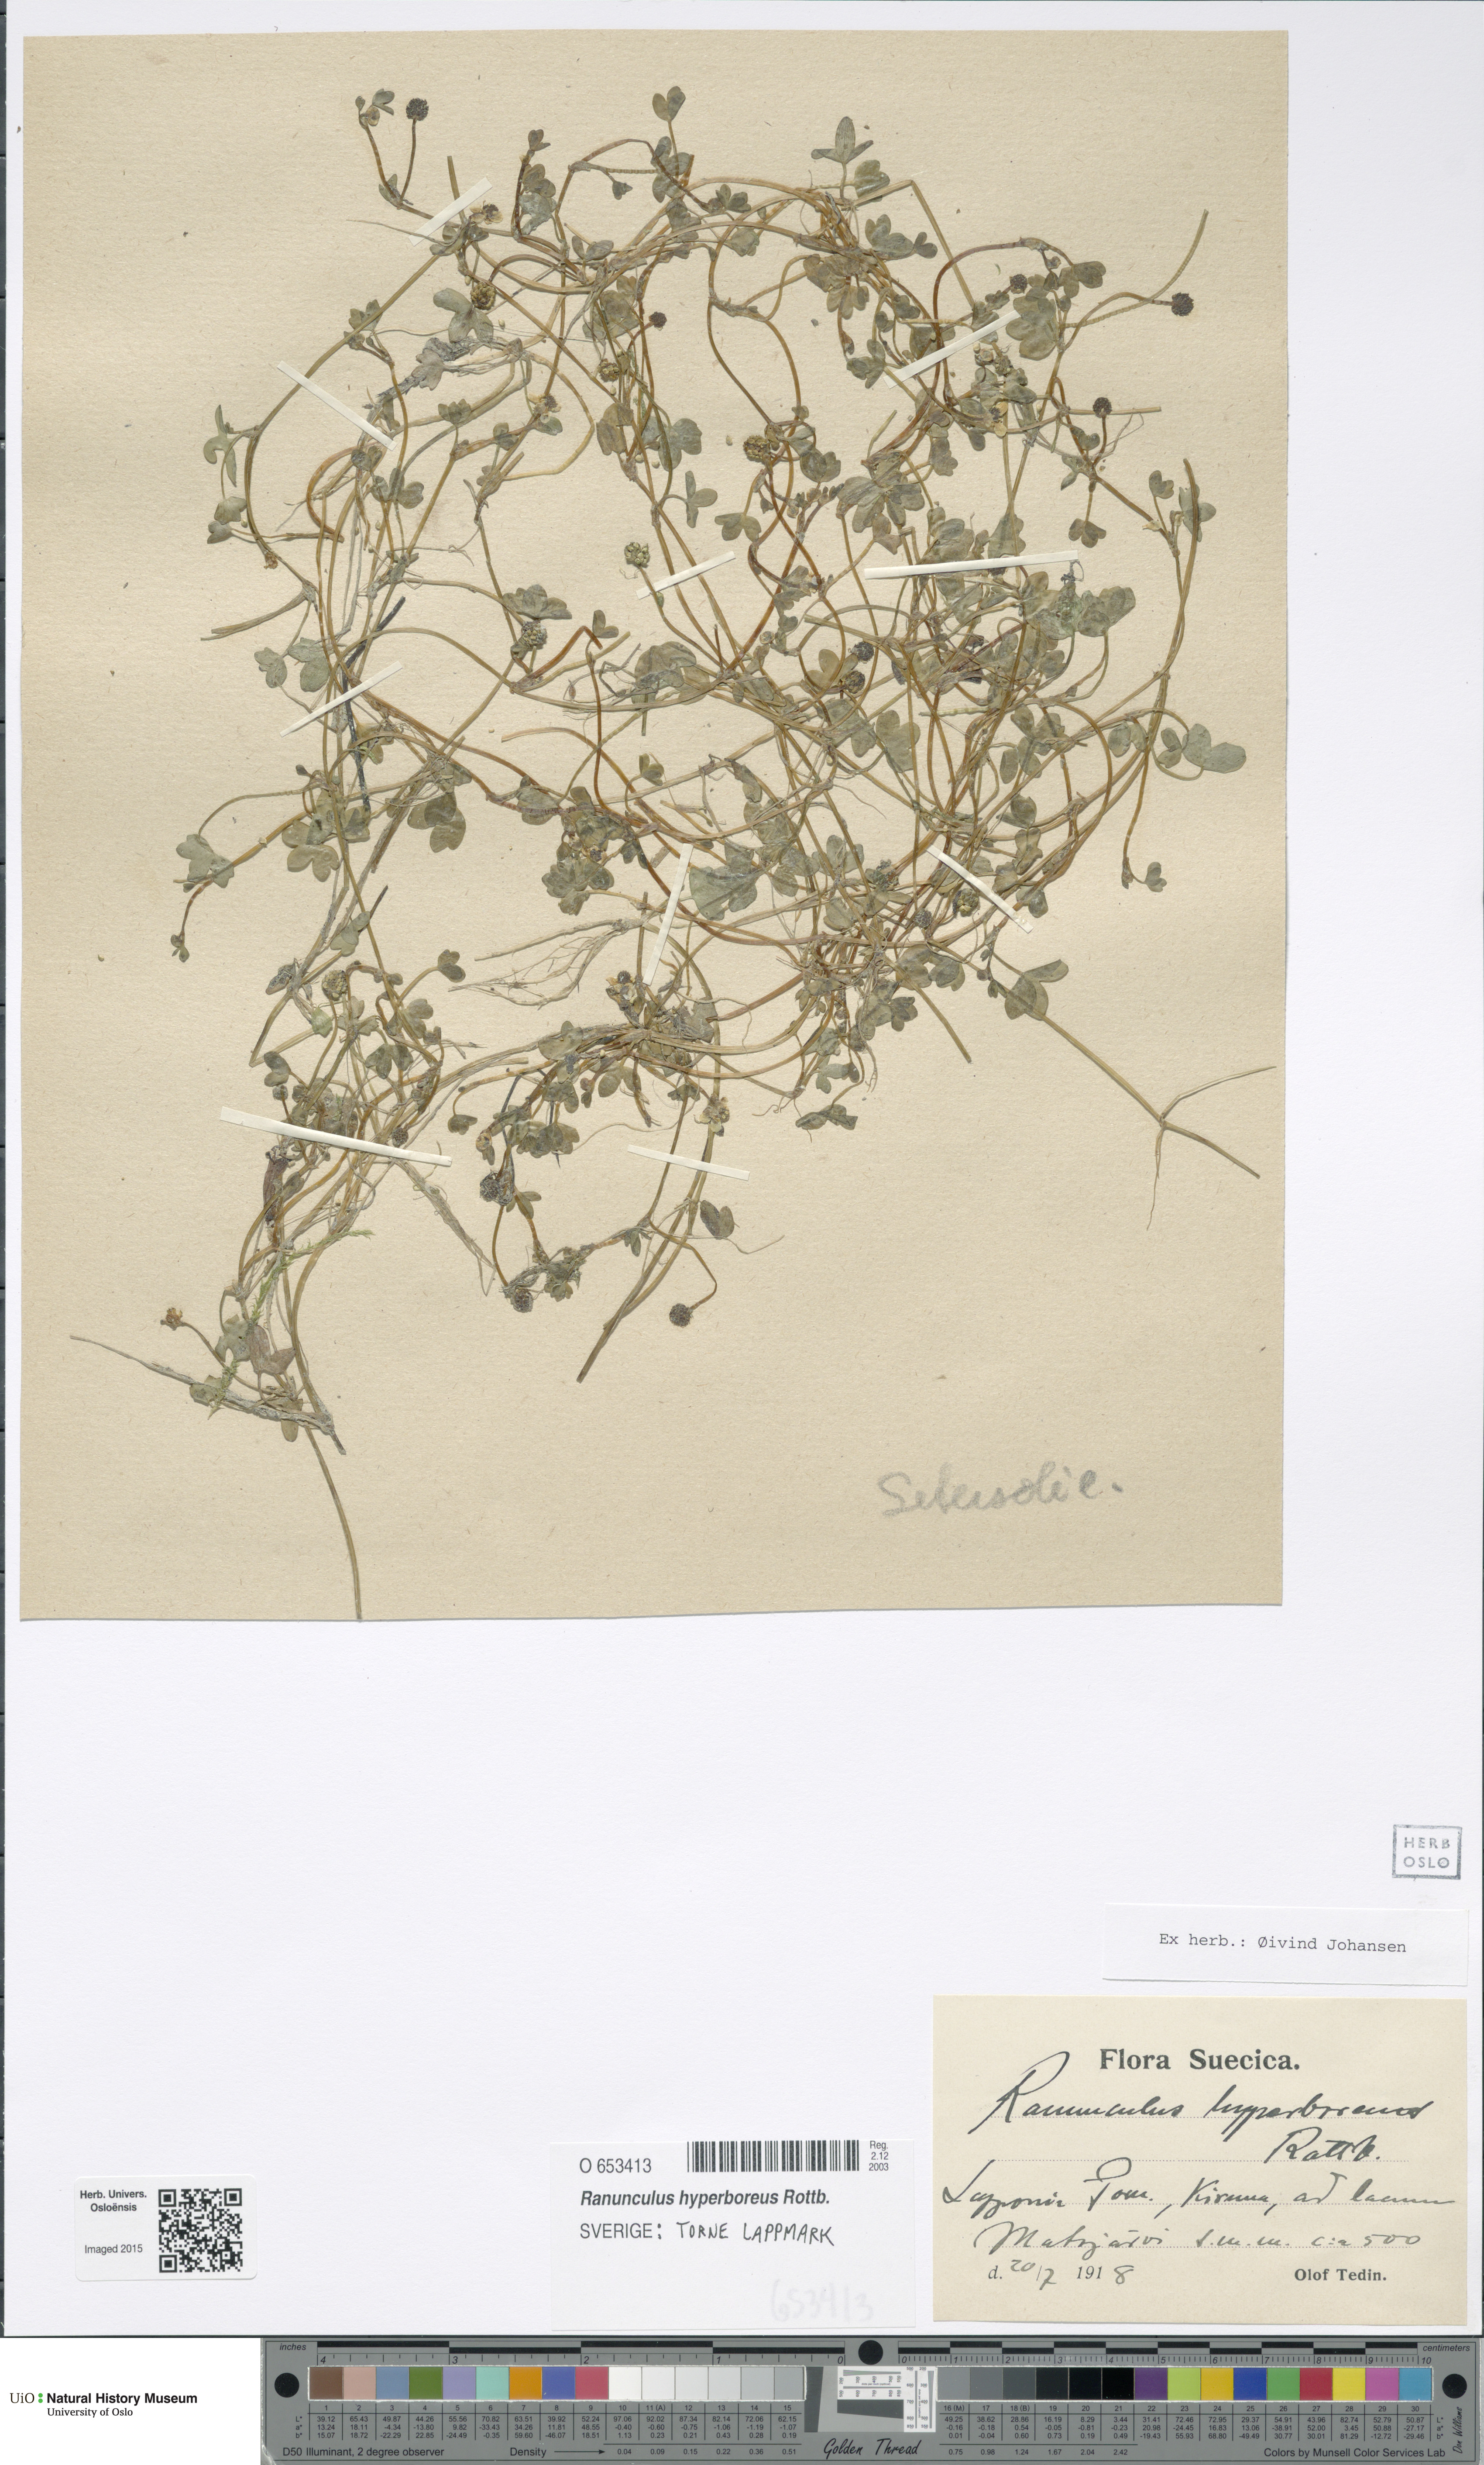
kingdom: Plantae
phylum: Tracheophyta
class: Magnoliopsida
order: Ranunculales
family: Ranunculaceae
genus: Ranunculus
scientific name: Ranunculus hyperboreus
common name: Arctic buttercup
